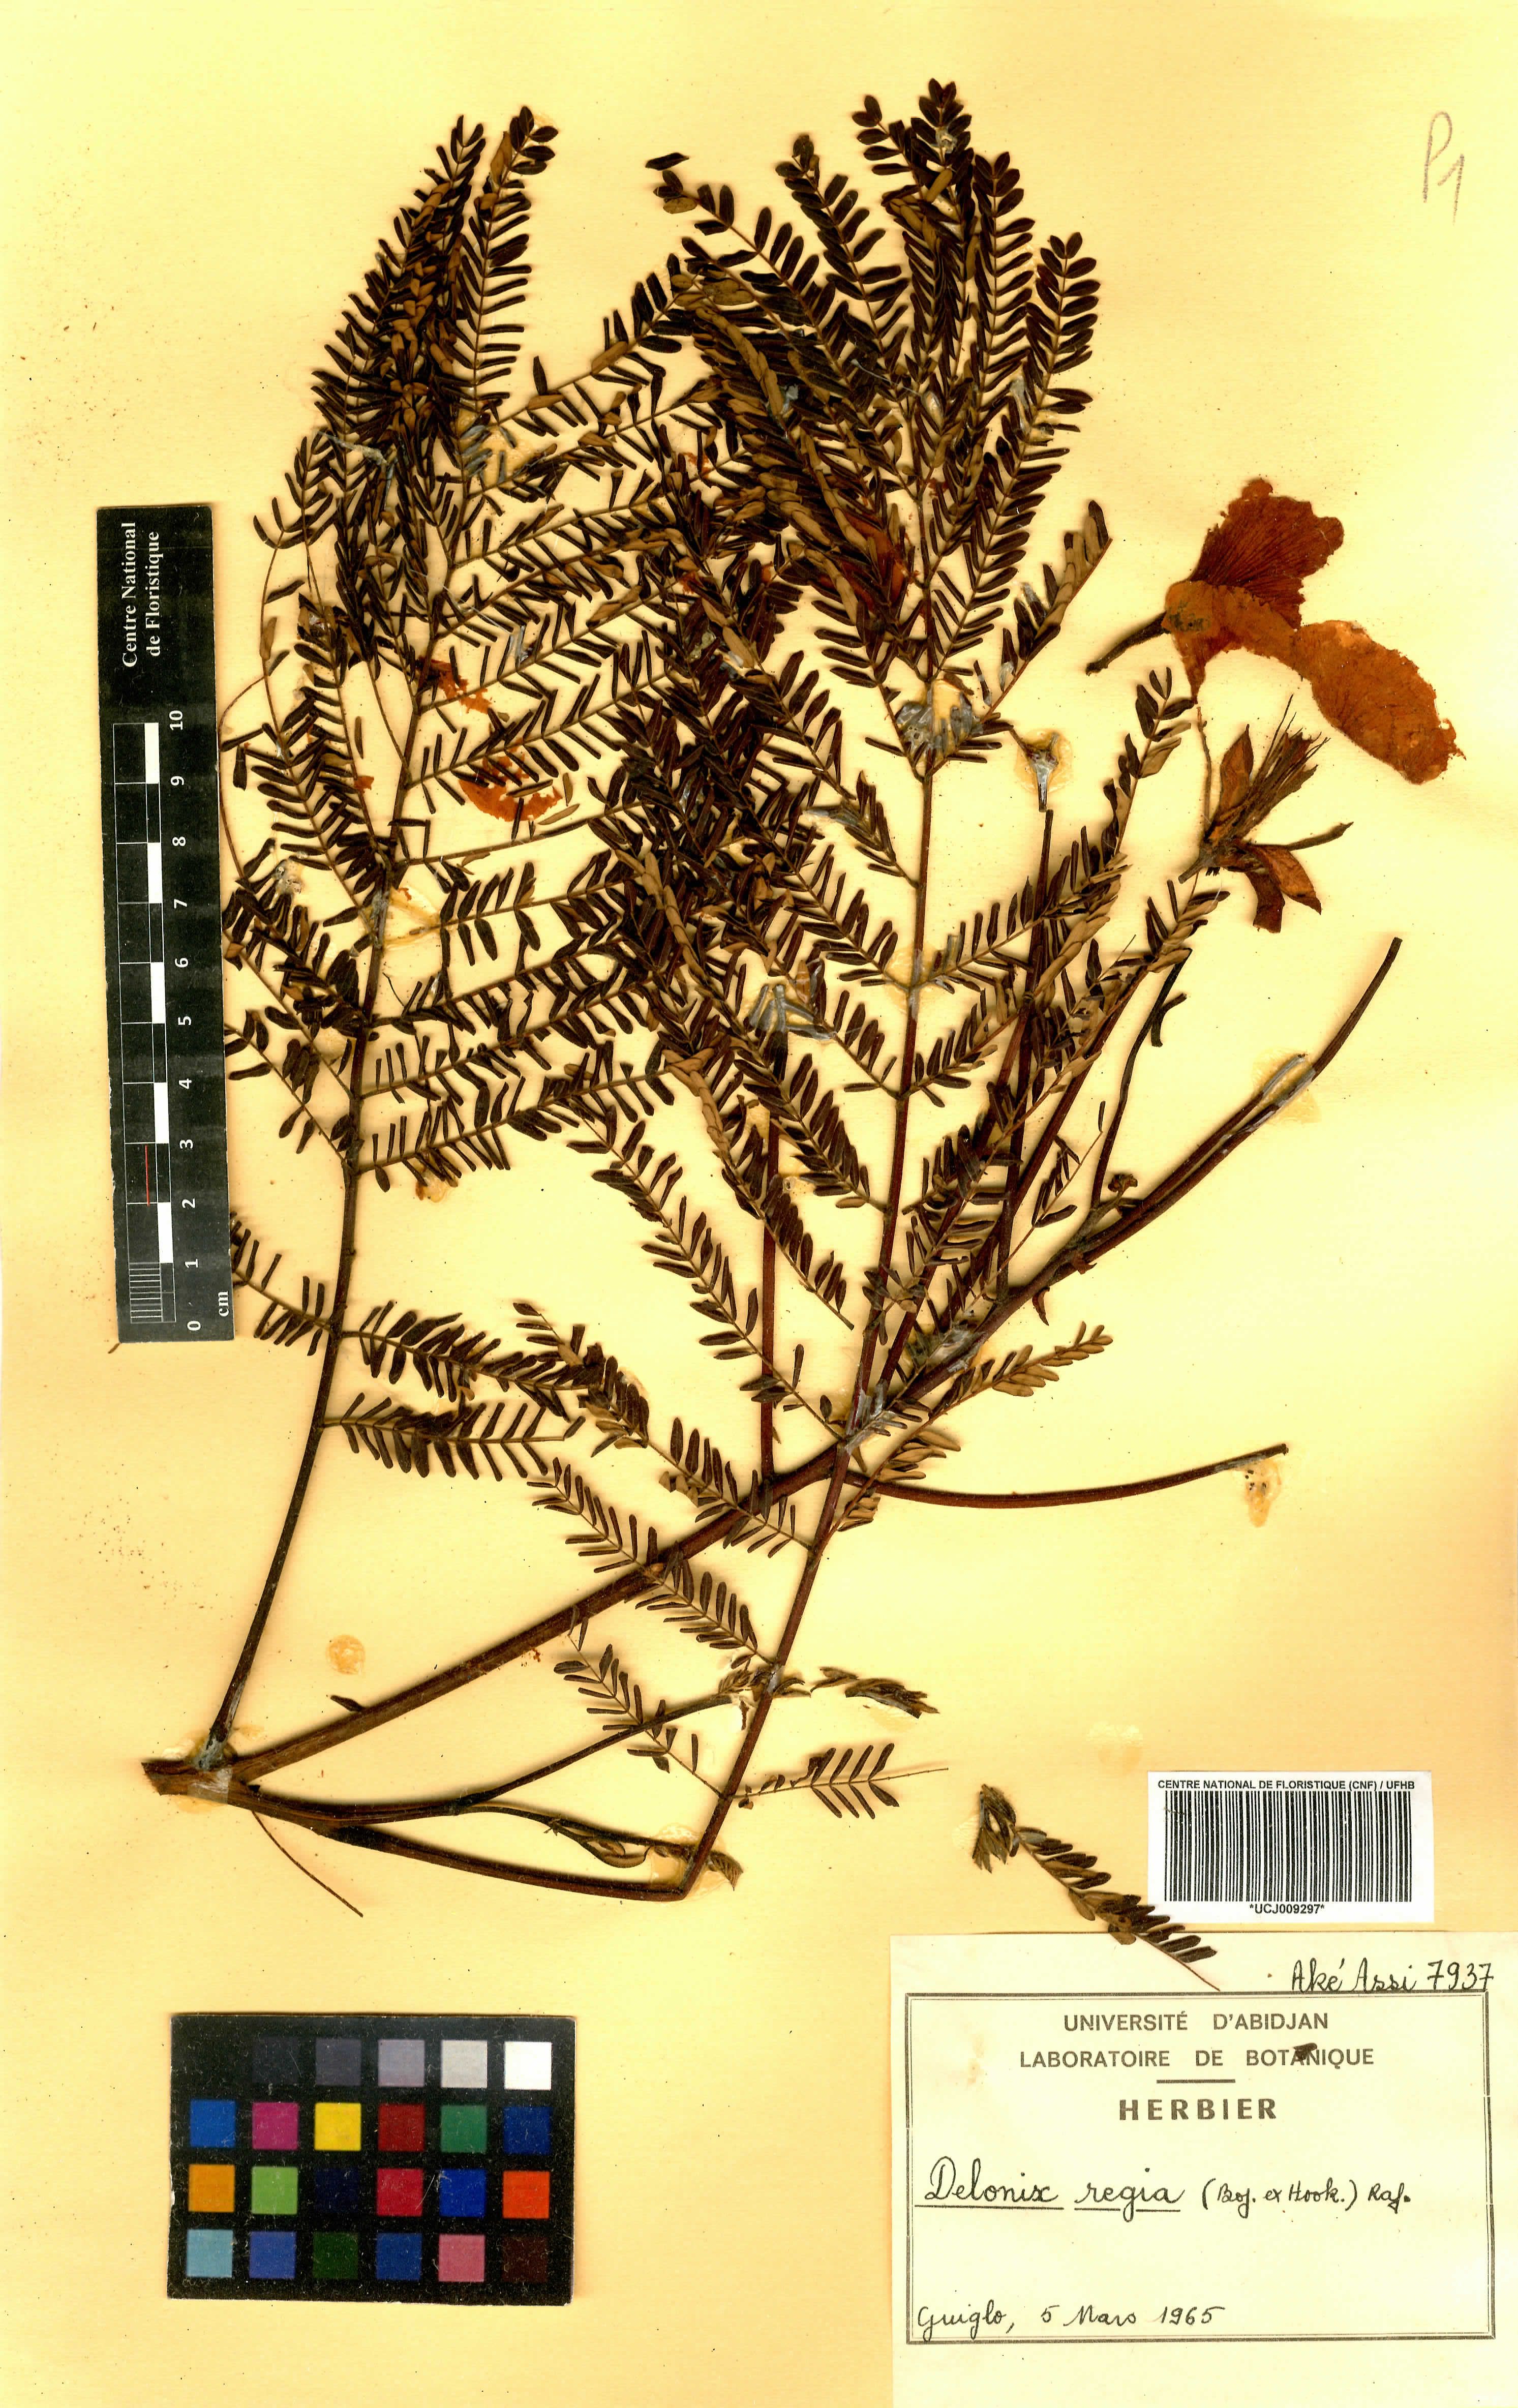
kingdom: Plantae
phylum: Tracheophyta
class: Magnoliopsida
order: Fabales
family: Fabaceae
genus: Delonix
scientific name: Delonix regia
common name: Royal poinciana
